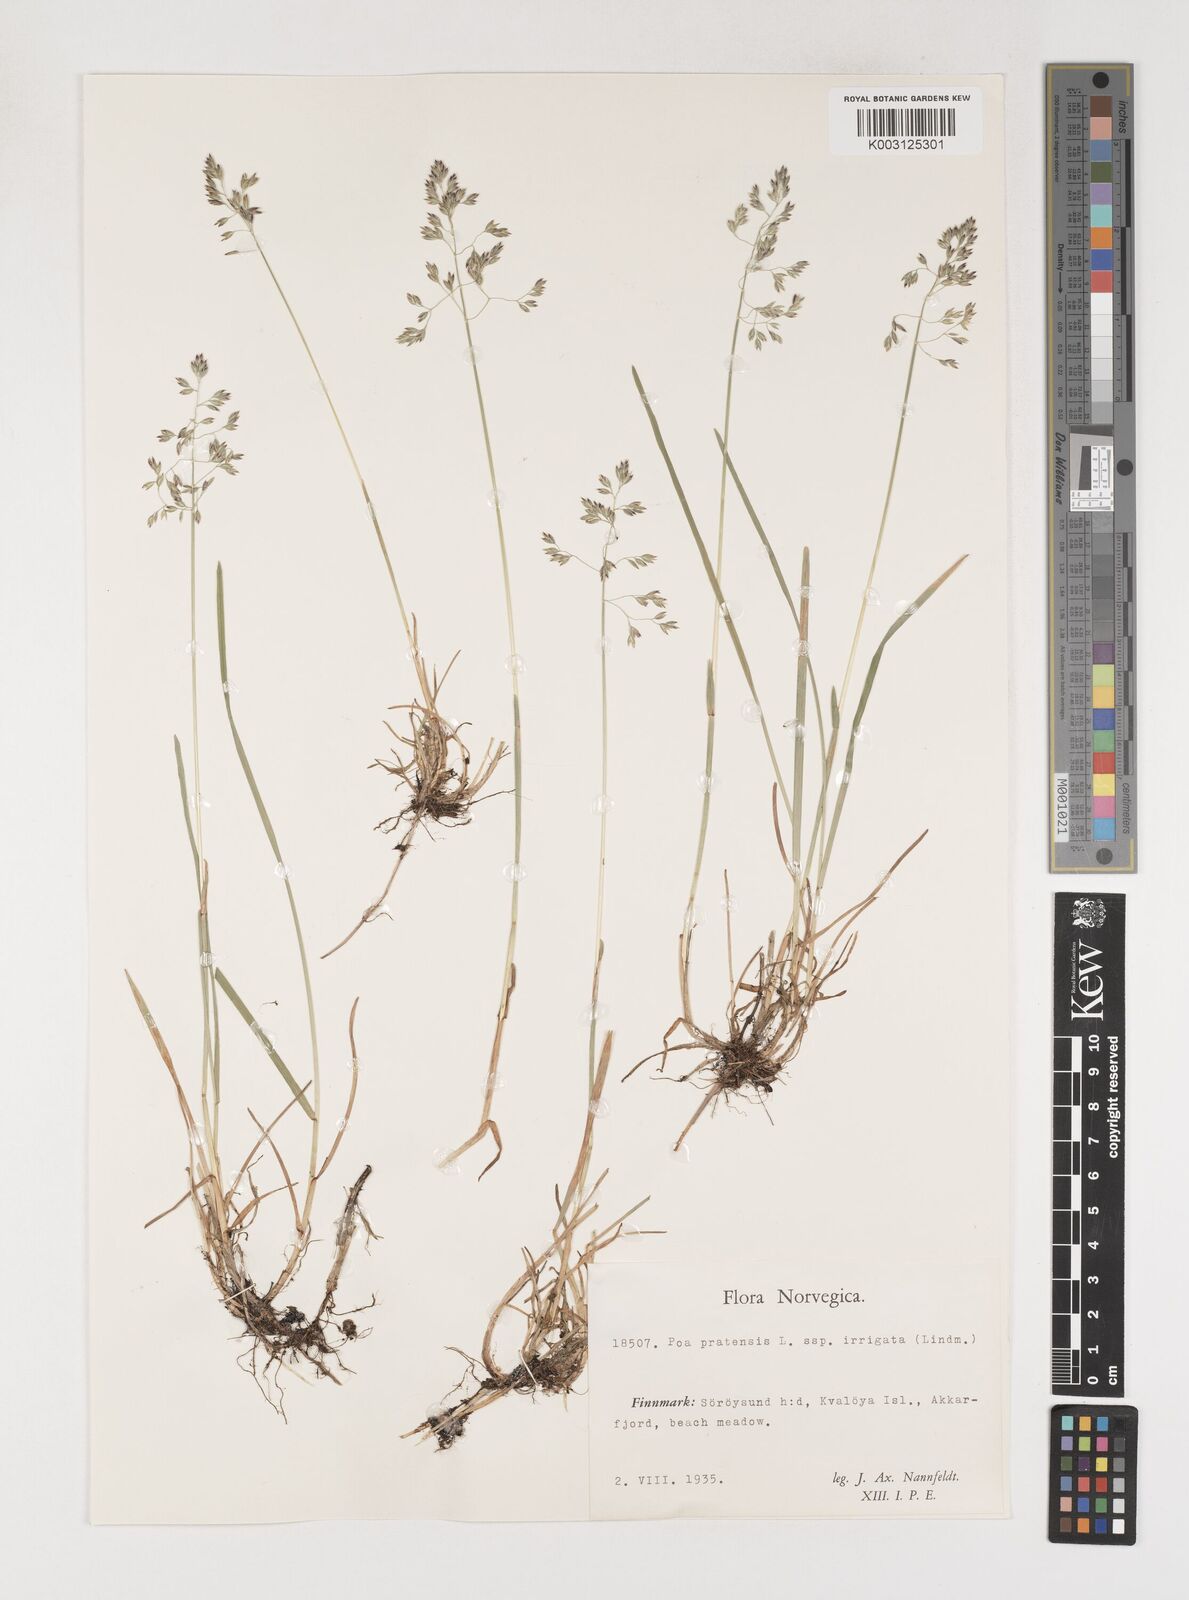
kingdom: Plantae
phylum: Tracheophyta
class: Liliopsida
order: Poales
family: Poaceae
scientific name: Poaceae
